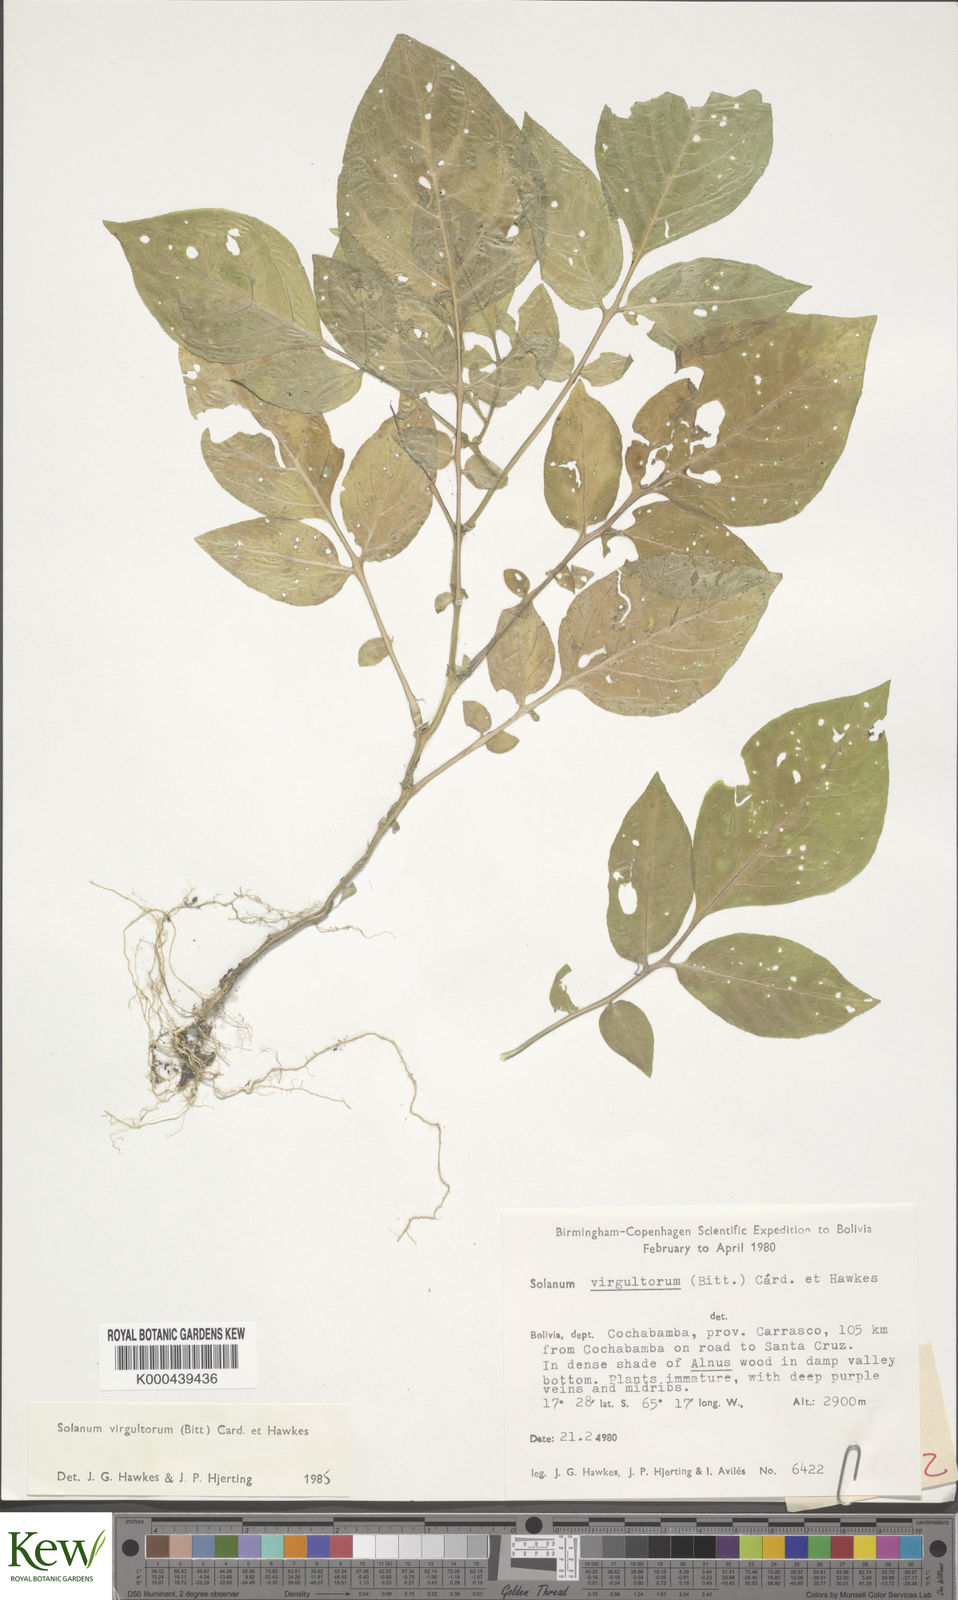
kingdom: Plantae
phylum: Tracheophyta
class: Magnoliopsida
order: Solanales
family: Solanaceae
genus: Solanum
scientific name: Solanum brevicaule
